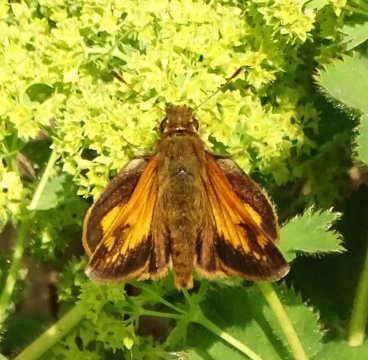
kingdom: Animalia
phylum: Arthropoda
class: Insecta
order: Lepidoptera
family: Hesperiidae
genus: Lon
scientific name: Lon hobomok
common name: Hobomok Skipper
